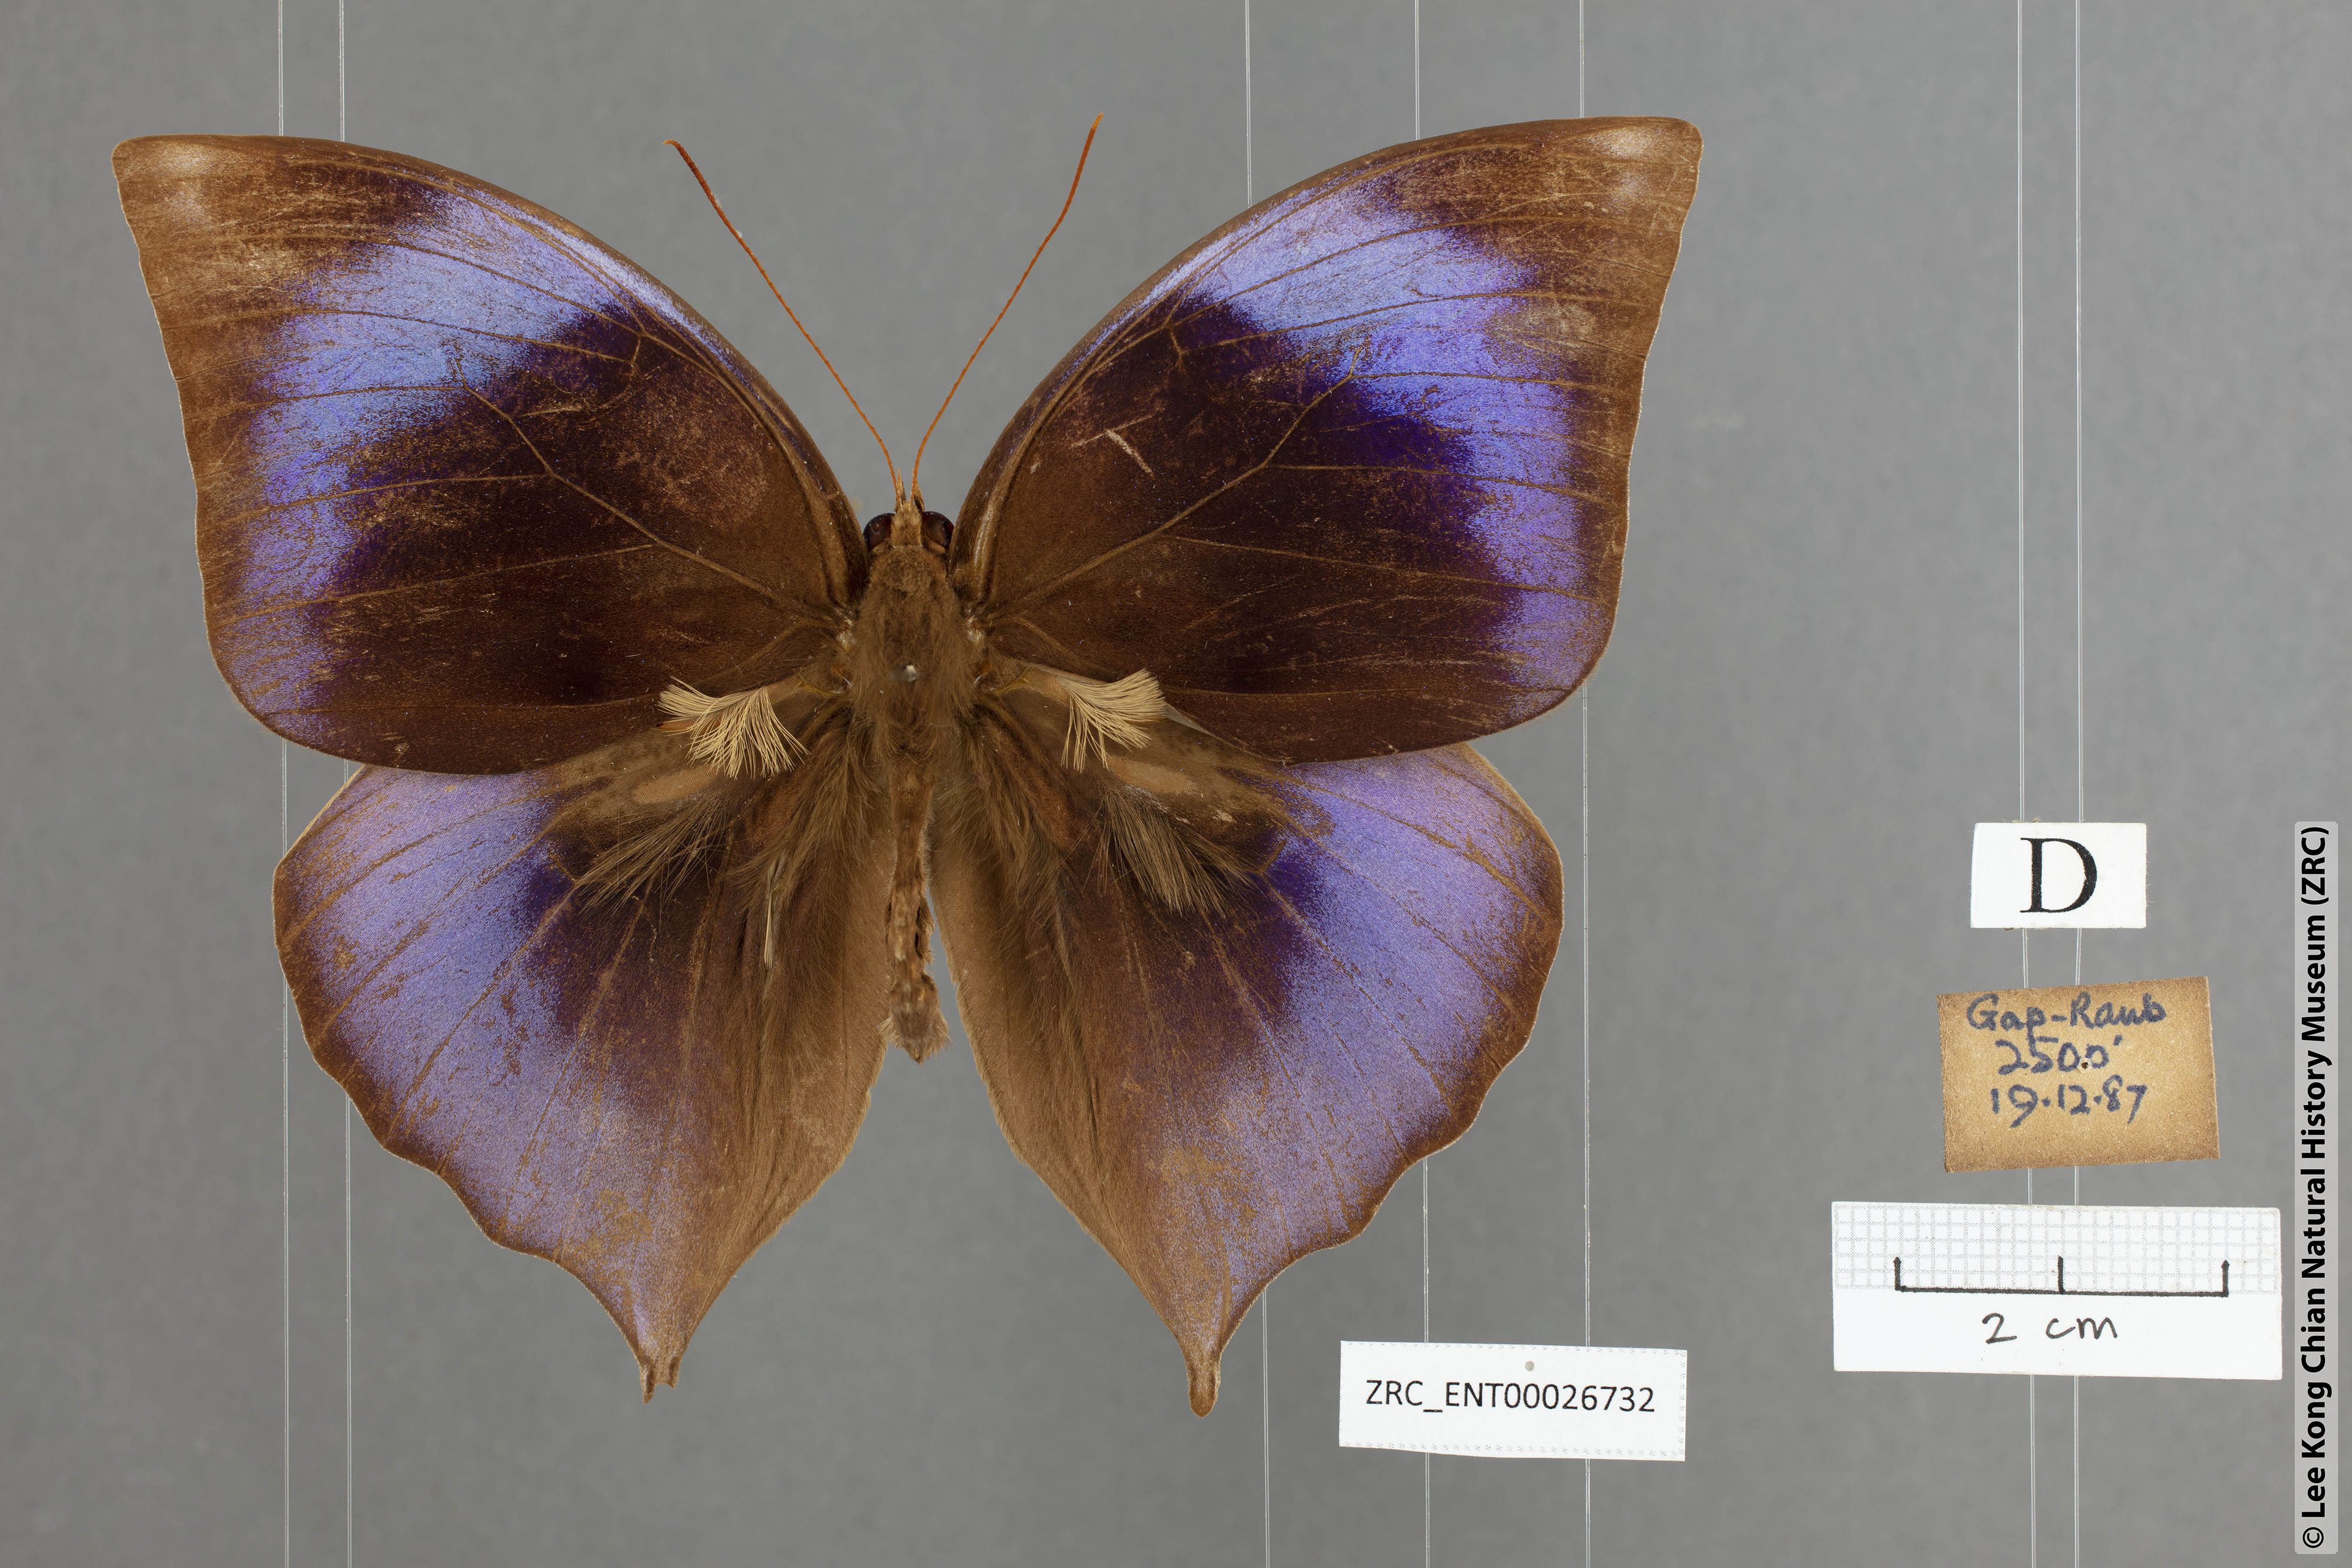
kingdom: Animalia
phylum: Arthropoda
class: Insecta
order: Lepidoptera
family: Nymphalidae
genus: Zeuxidia
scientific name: Zeuxidia doubledaii
